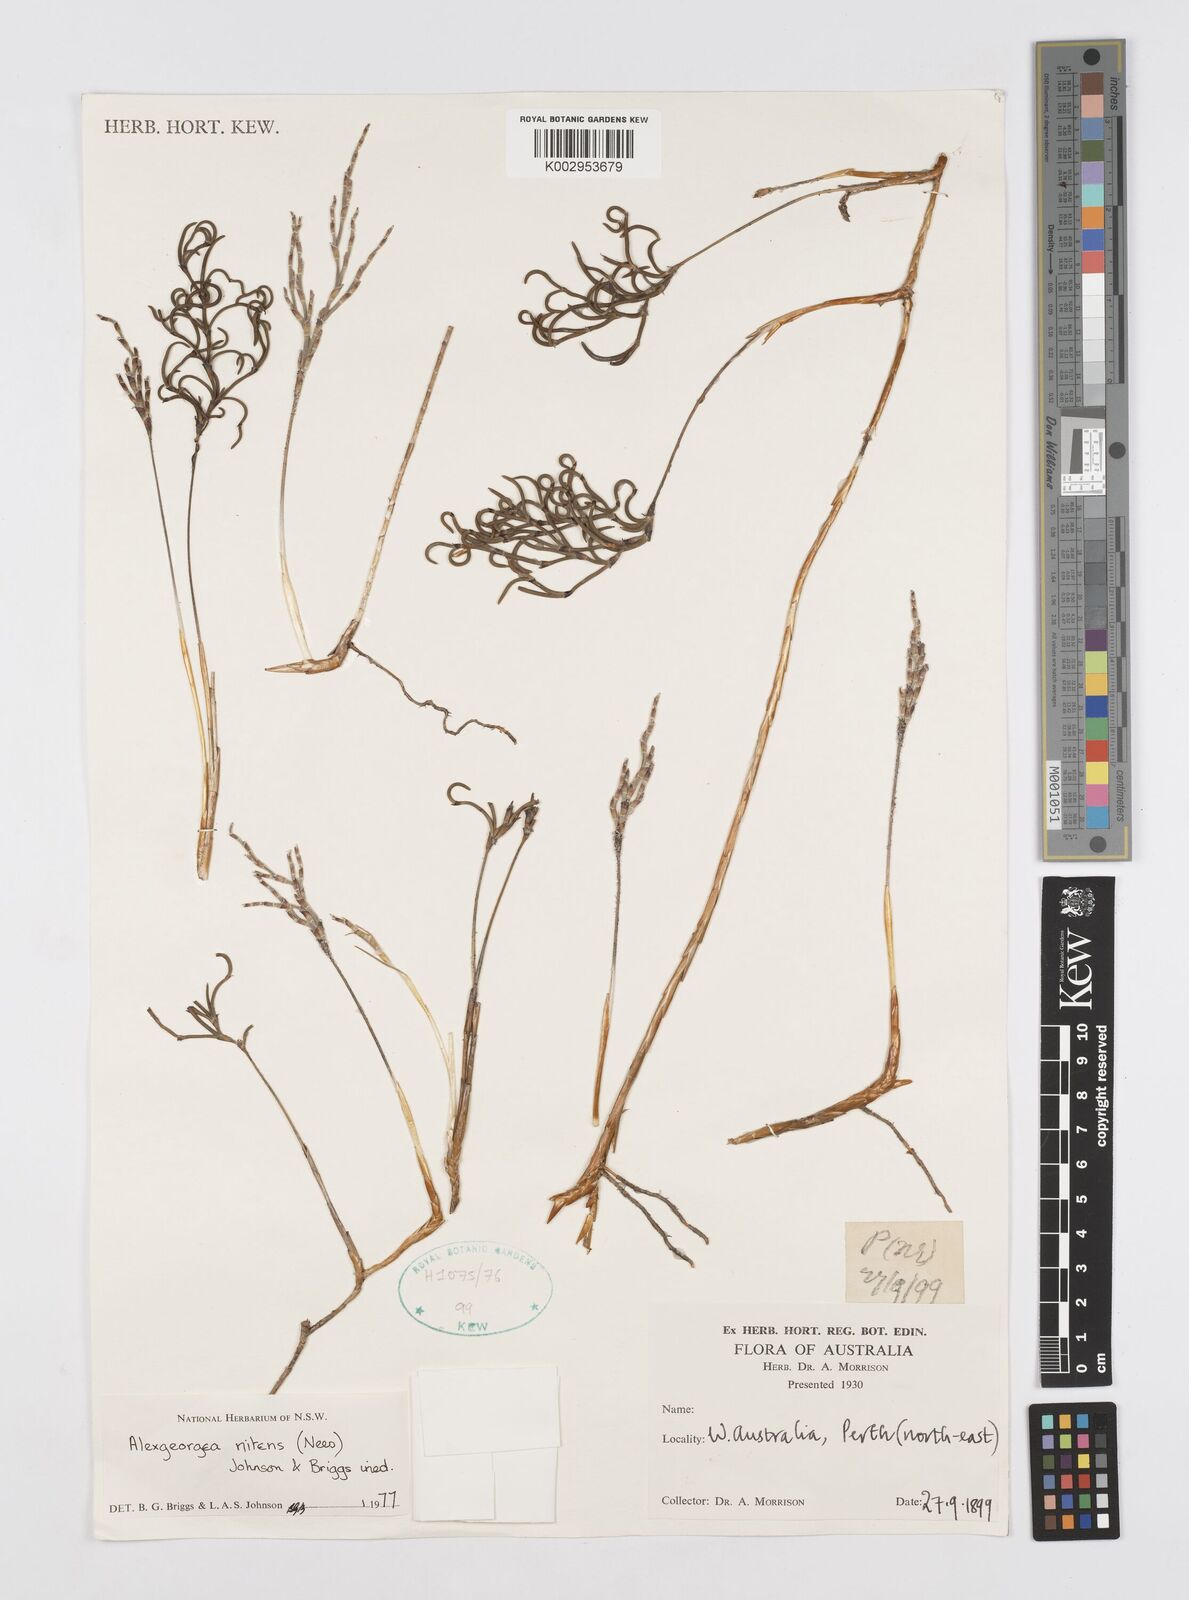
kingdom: Plantae
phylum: Tracheophyta
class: Liliopsida
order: Poales
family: Restionaceae
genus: Alexgeorgea
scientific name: Alexgeorgea nitens
